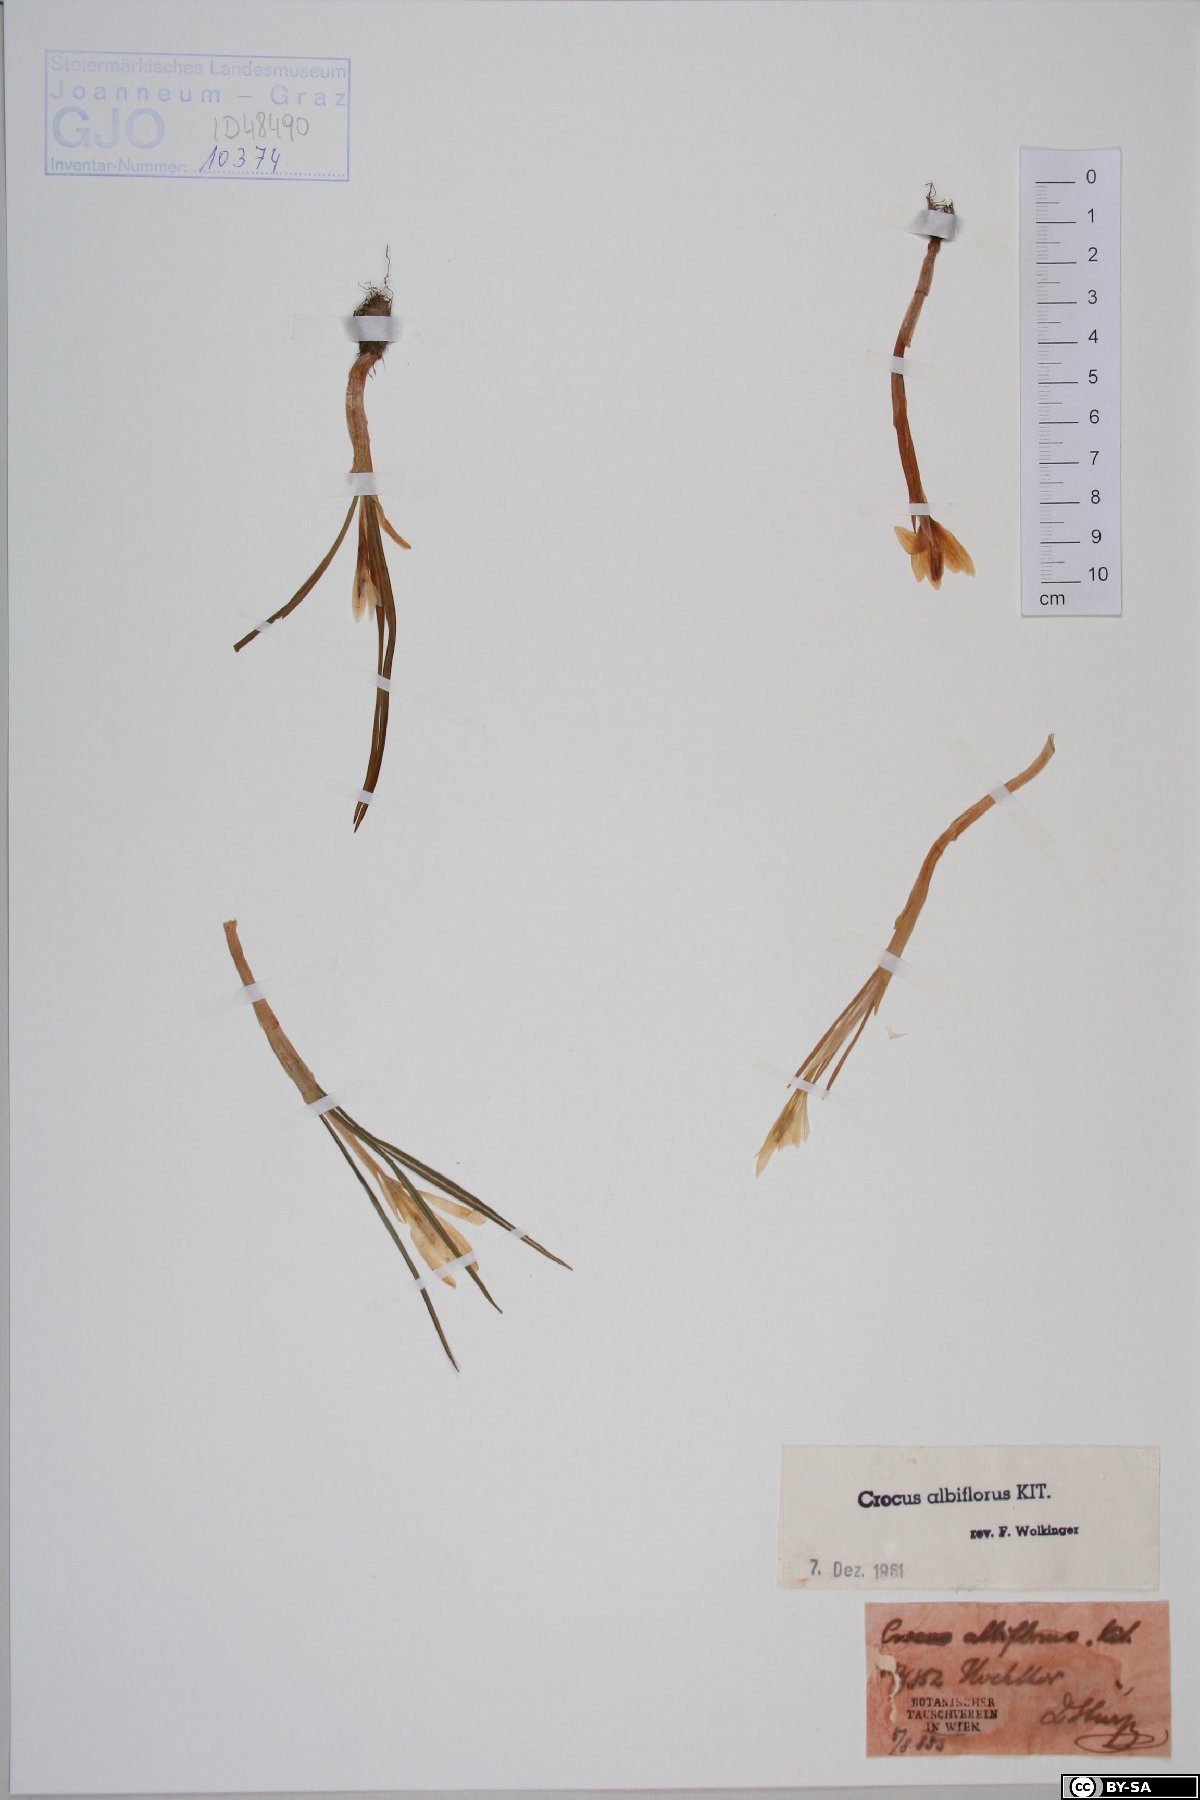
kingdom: Plantae
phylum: Tracheophyta
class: Liliopsida
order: Asparagales
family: Iridaceae
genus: Crocus
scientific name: Crocus vernus
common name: Spring crocus
